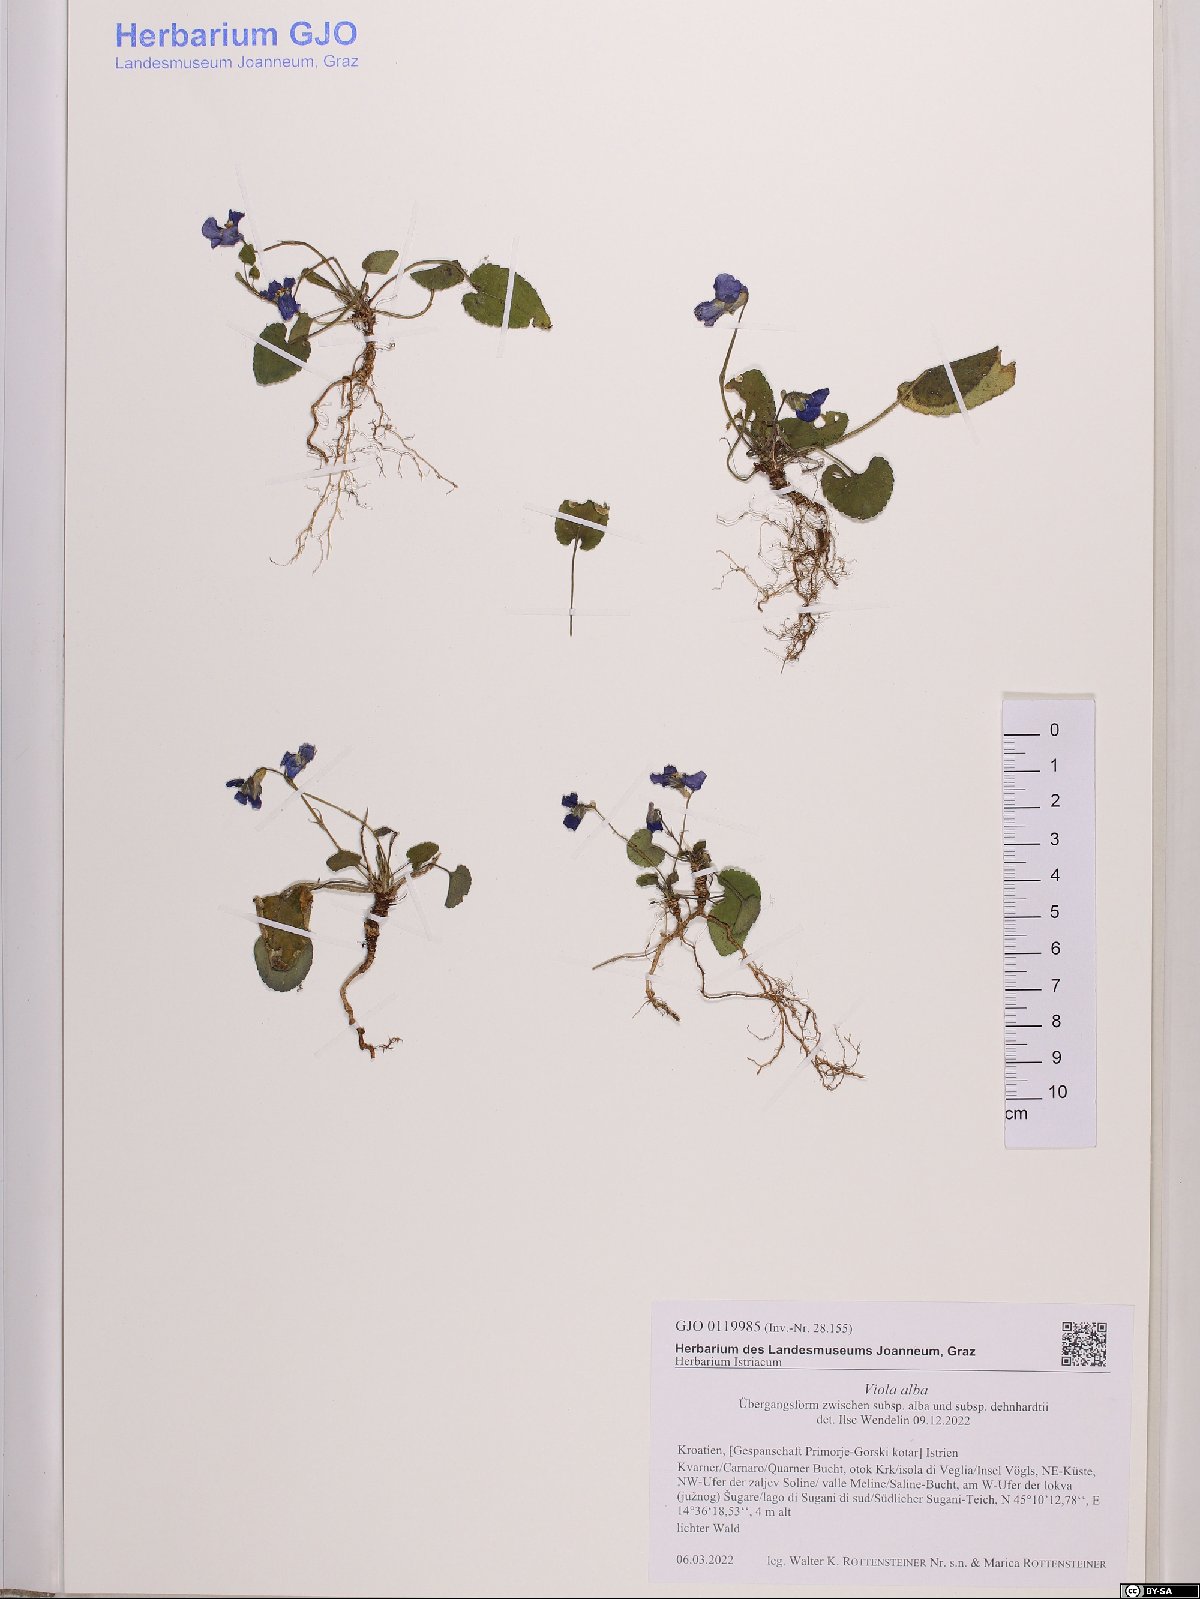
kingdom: Plantae
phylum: Tracheophyta
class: Magnoliopsida
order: Malpighiales
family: Violaceae
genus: Viola
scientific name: Viola alba
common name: White violet
